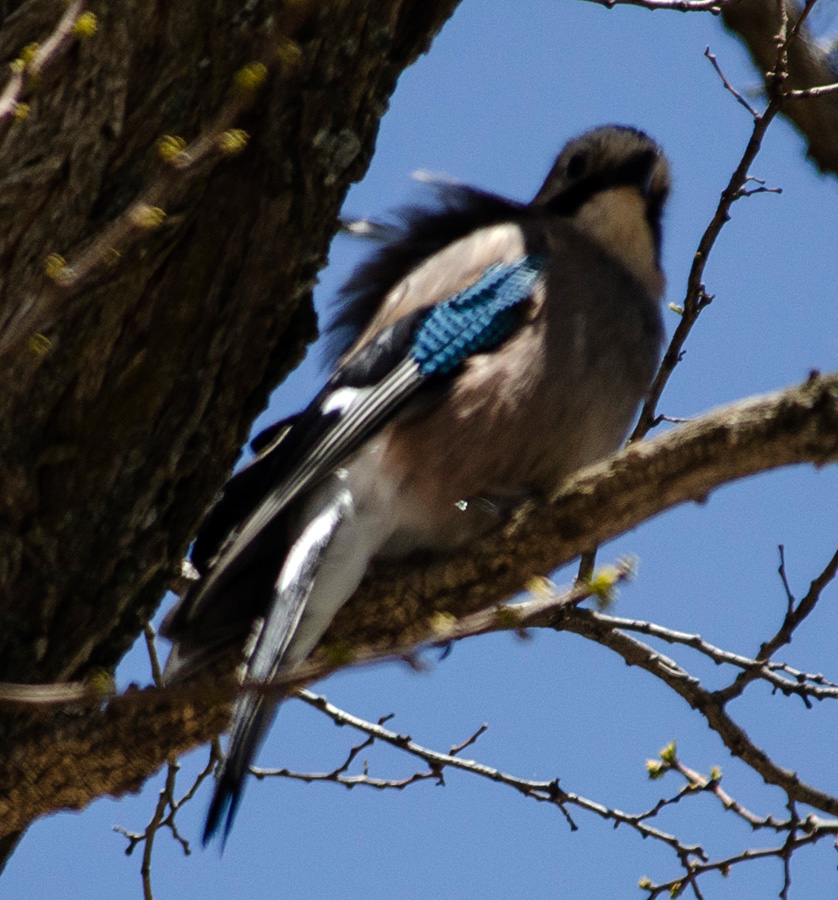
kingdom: Animalia
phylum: Chordata
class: Aves
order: Passeriformes
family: Corvidae
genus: Garrulus
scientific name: Garrulus glandarius
